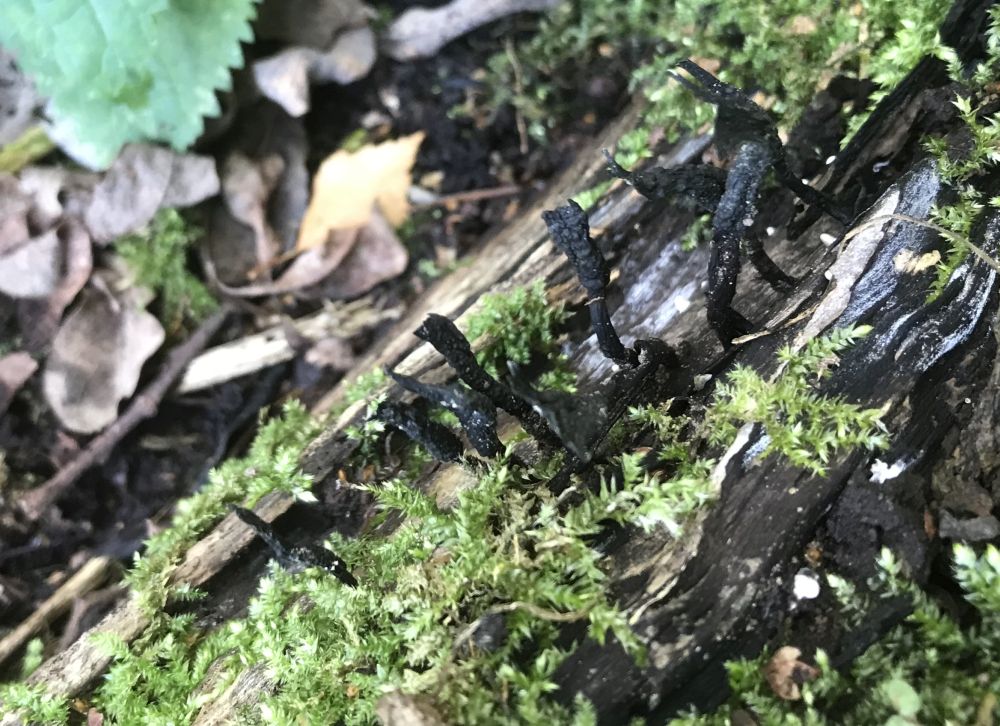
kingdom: Fungi
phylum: Ascomycota
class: Sordariomycetes
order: Xylariales
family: Xylariaceae
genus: Xylaria
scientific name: Xylaria hypoxylon
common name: grenet stødsvamp
